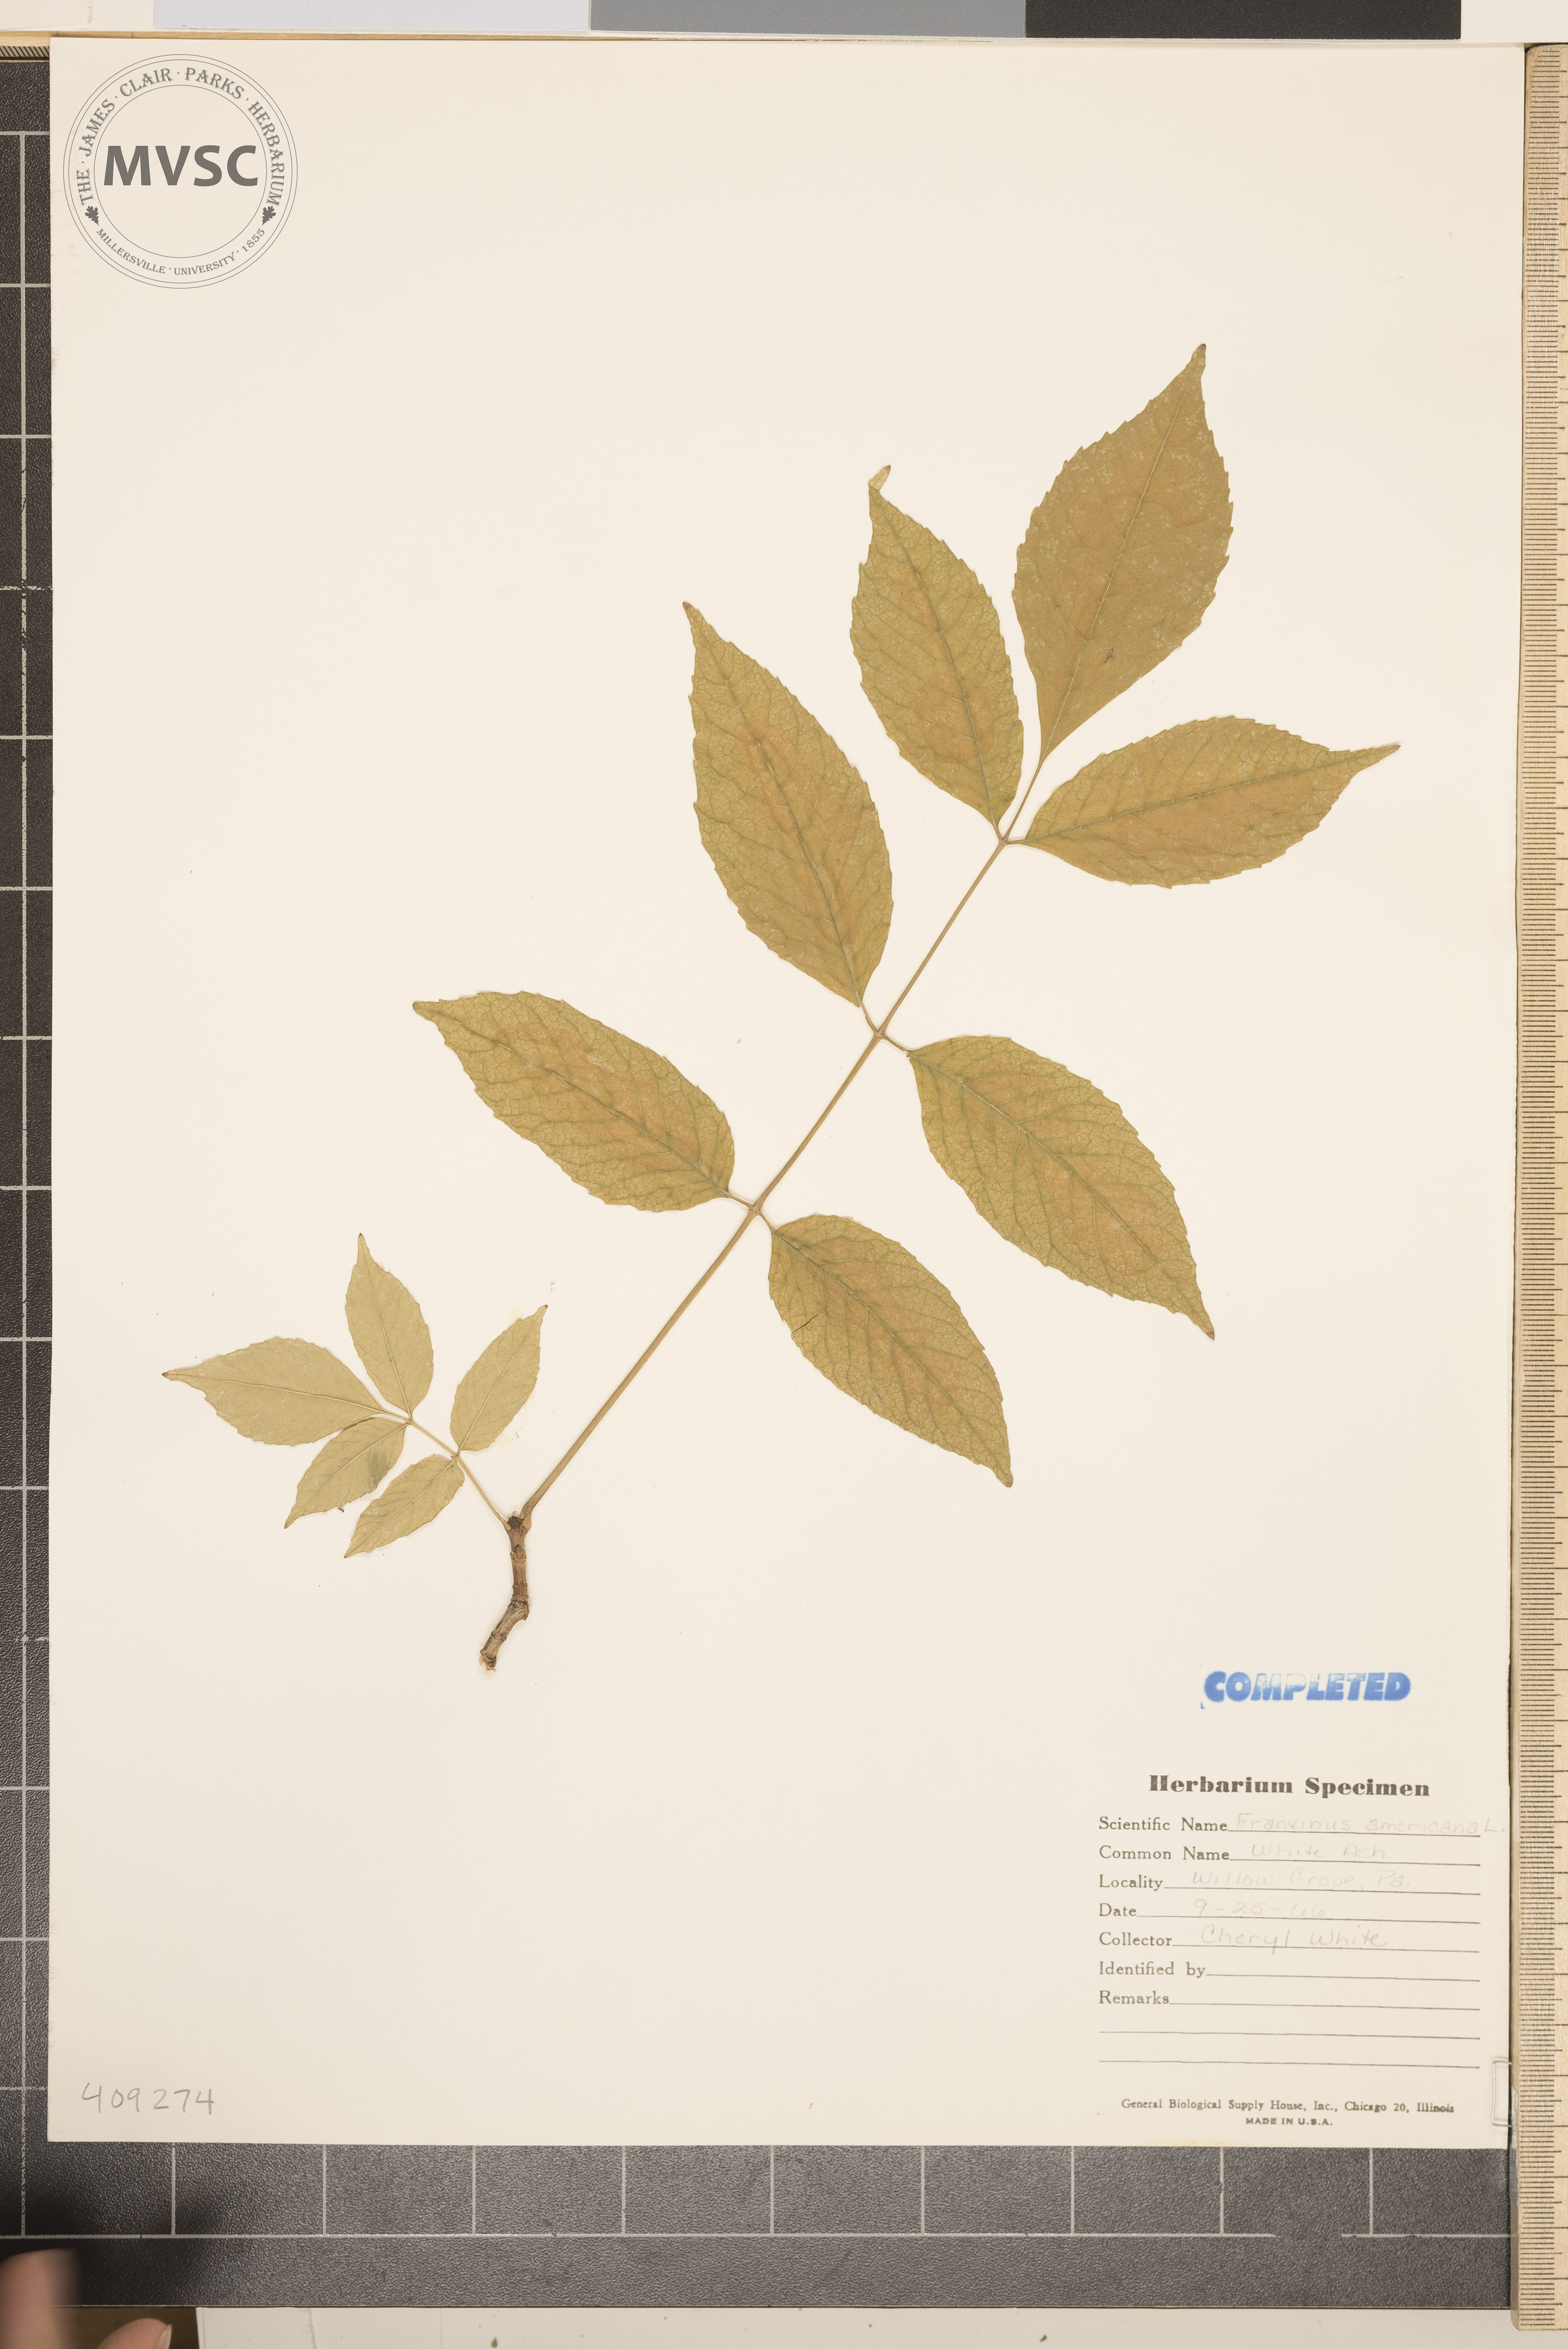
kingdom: Plantae
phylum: Tracheophyta
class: Magnoliopsida
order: Lamiales
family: Oleaceae
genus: Fraxinus
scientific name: Fraxinus americana
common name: White ash
